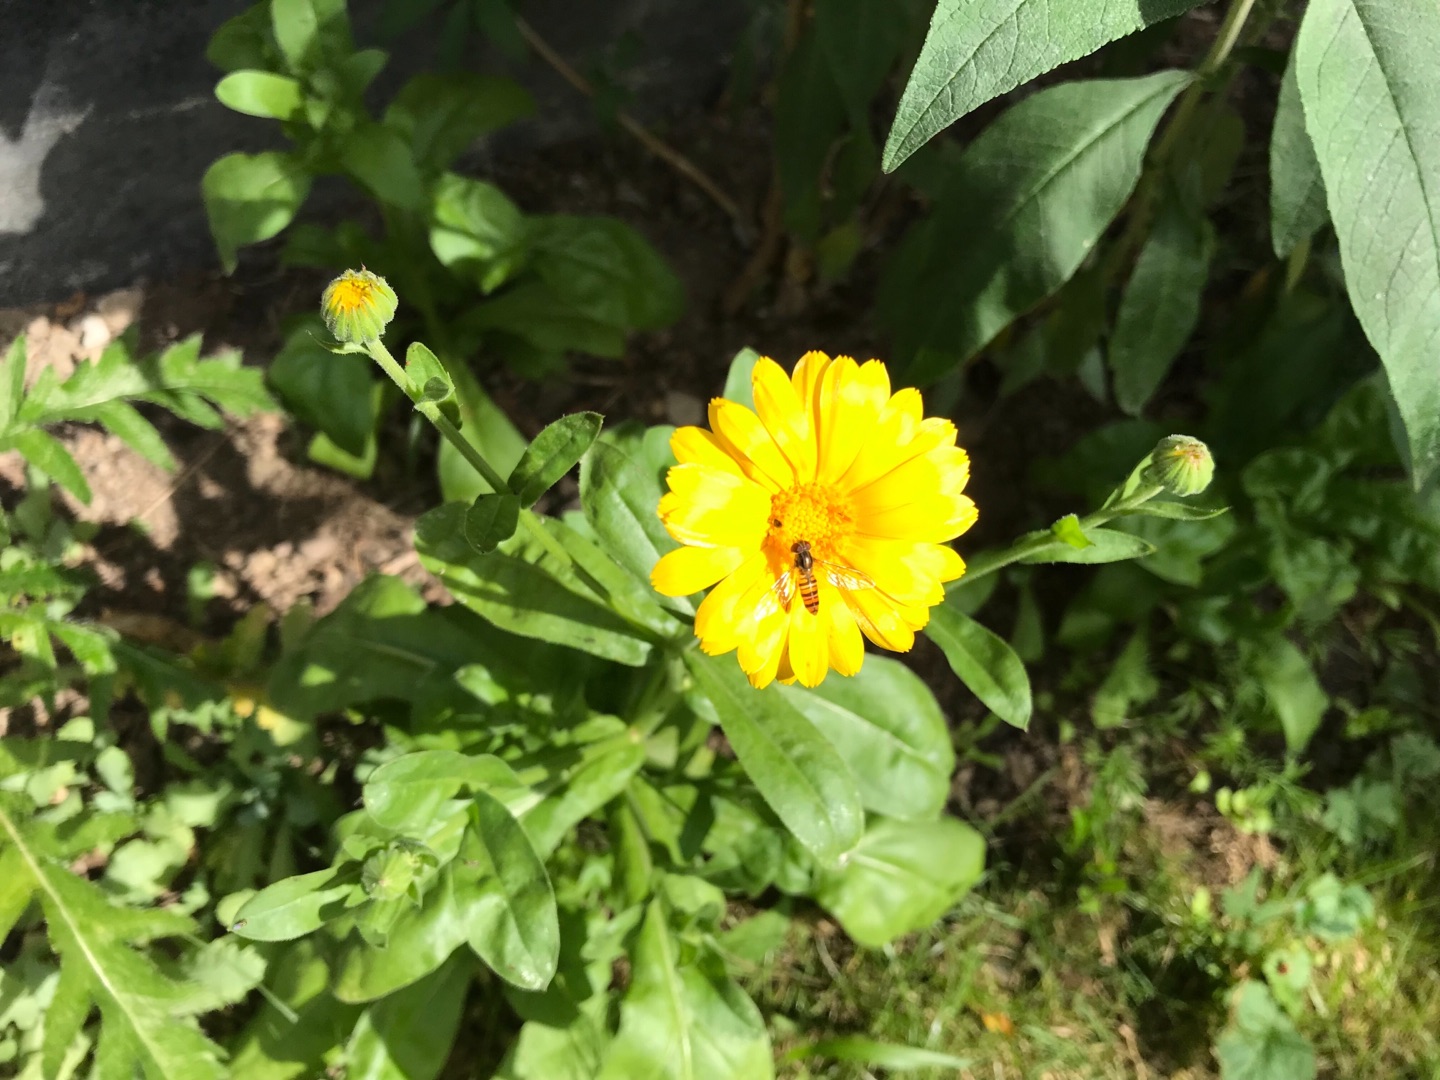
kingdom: Plantae
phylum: Tracheophyta
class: Magnoliopsida
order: Asterales
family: Asteraceae
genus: Calendula
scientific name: Calendula officinalis
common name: Have-morgenfrue
